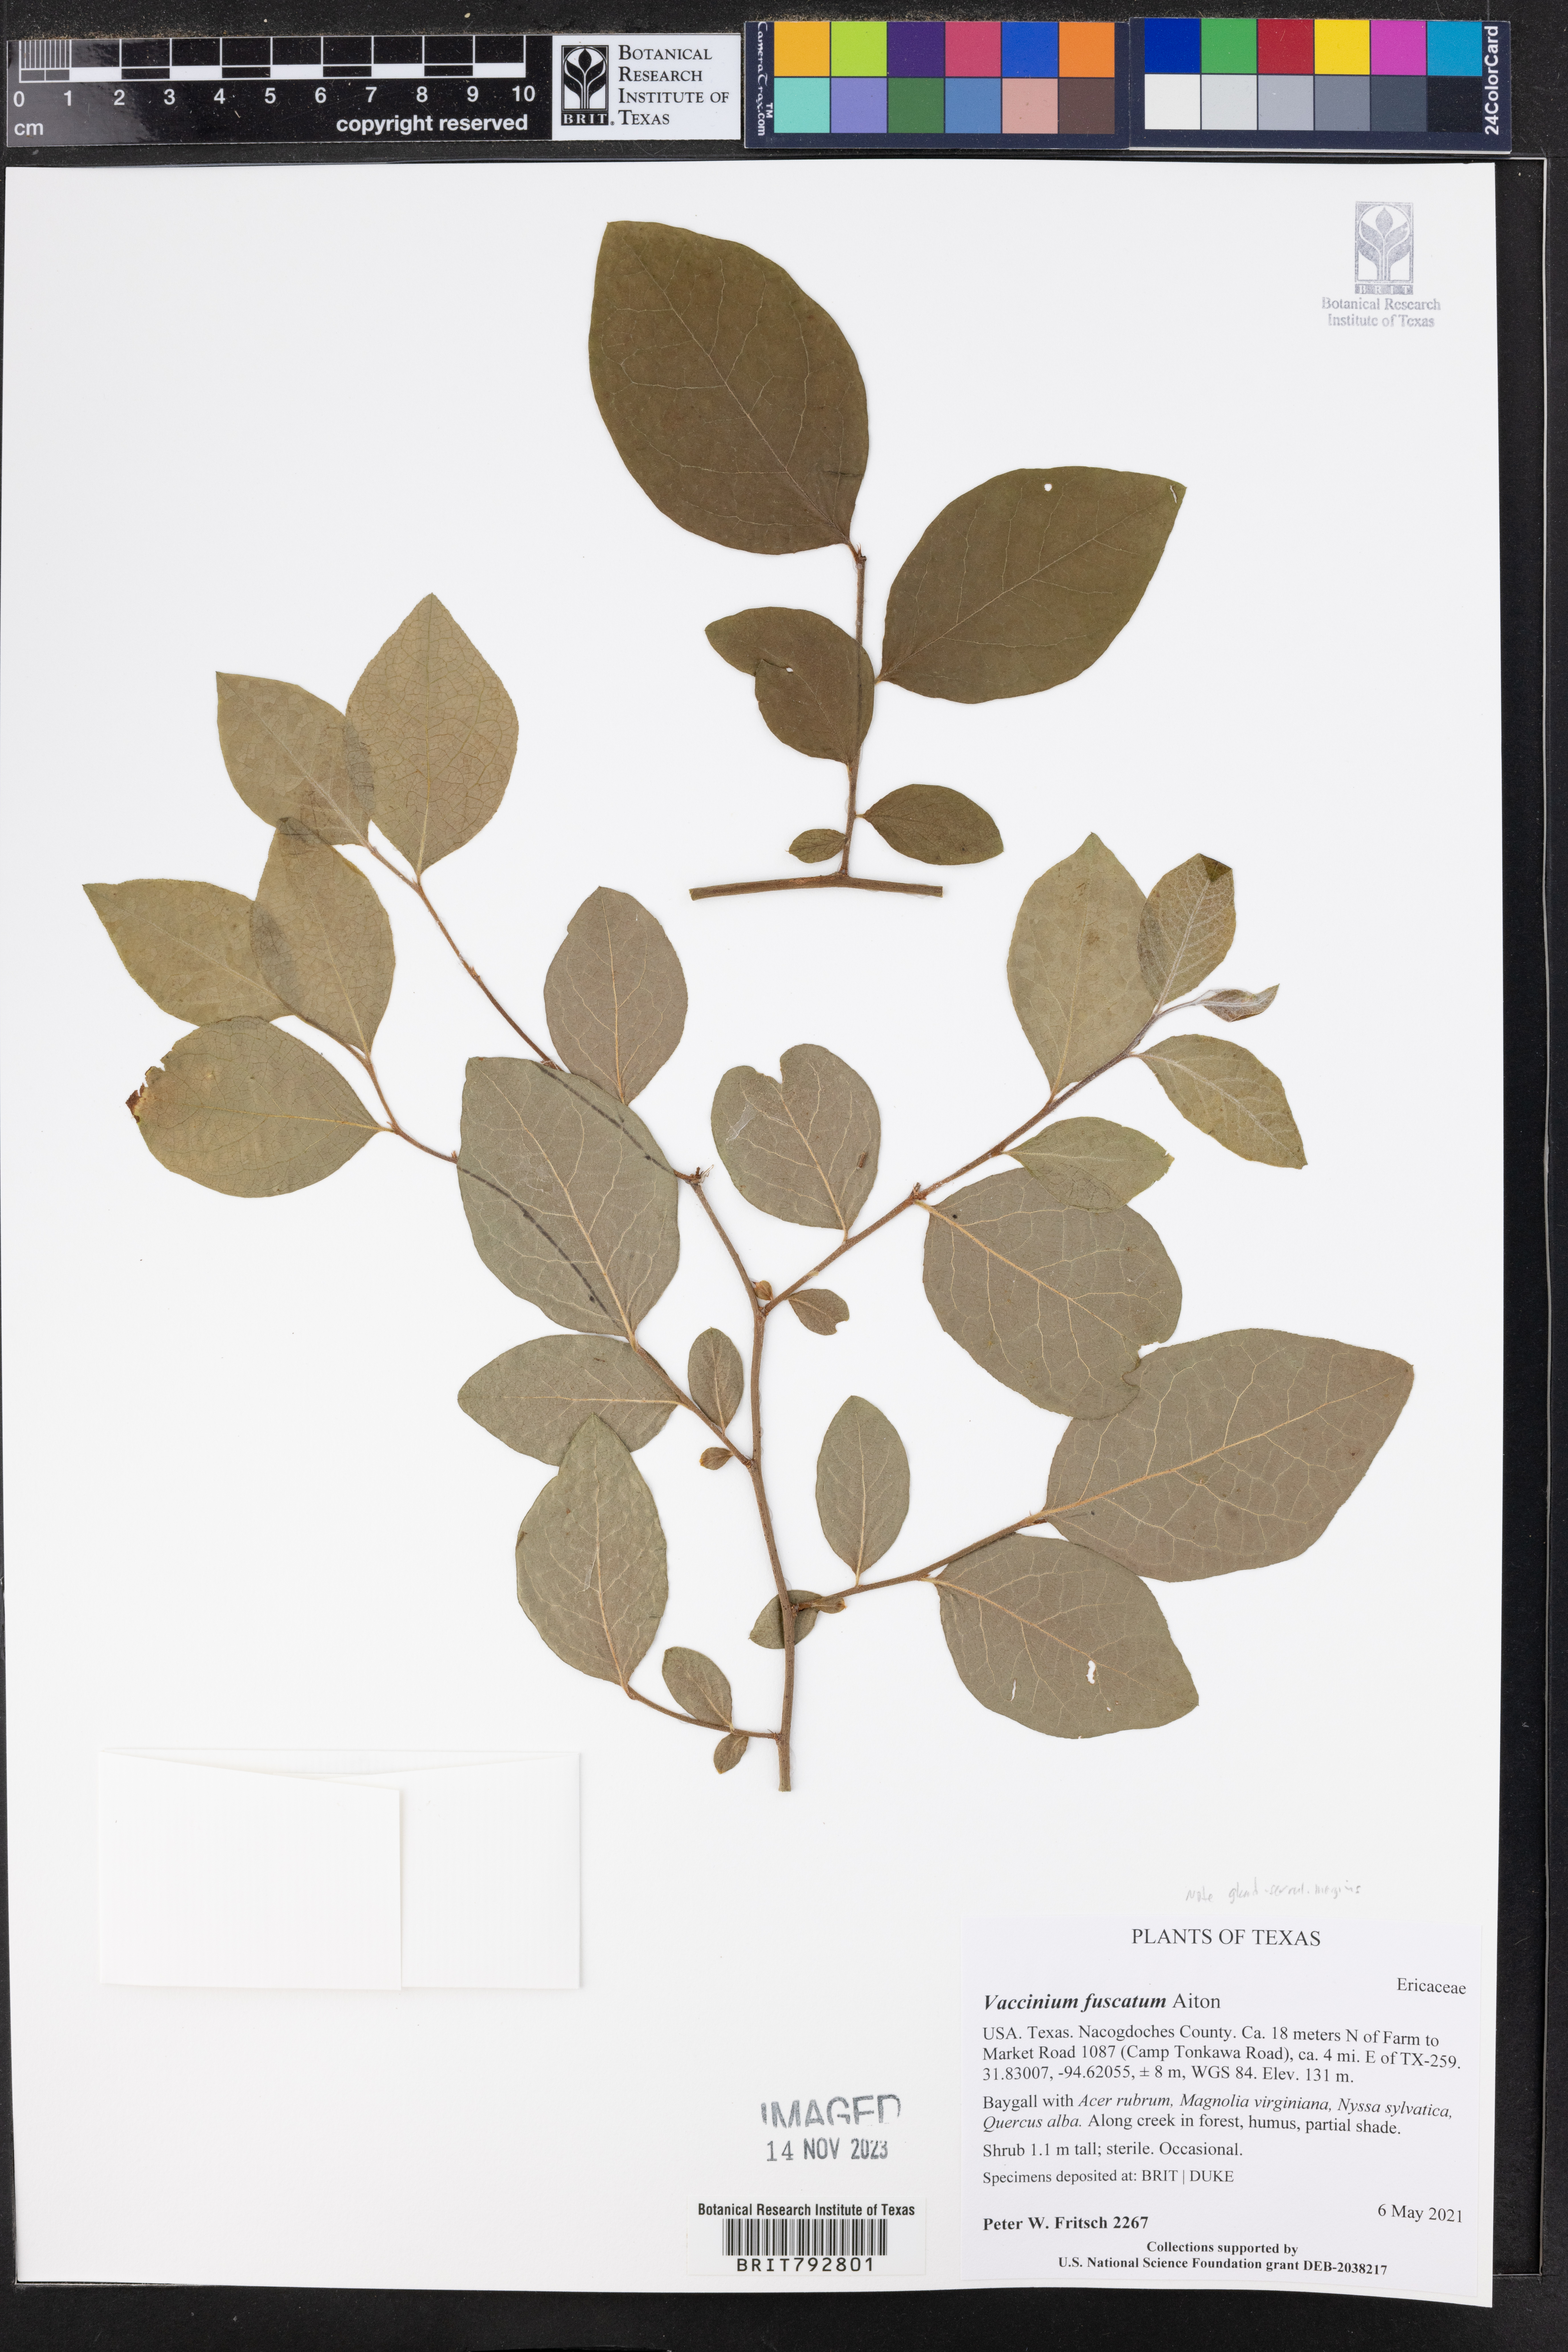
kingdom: Plantae
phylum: Tracheophyta
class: Magnoliopsida
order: Ericales
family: Ericaceae
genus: Vaccinium
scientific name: Vaccinium corymbosum
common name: Blueberry
